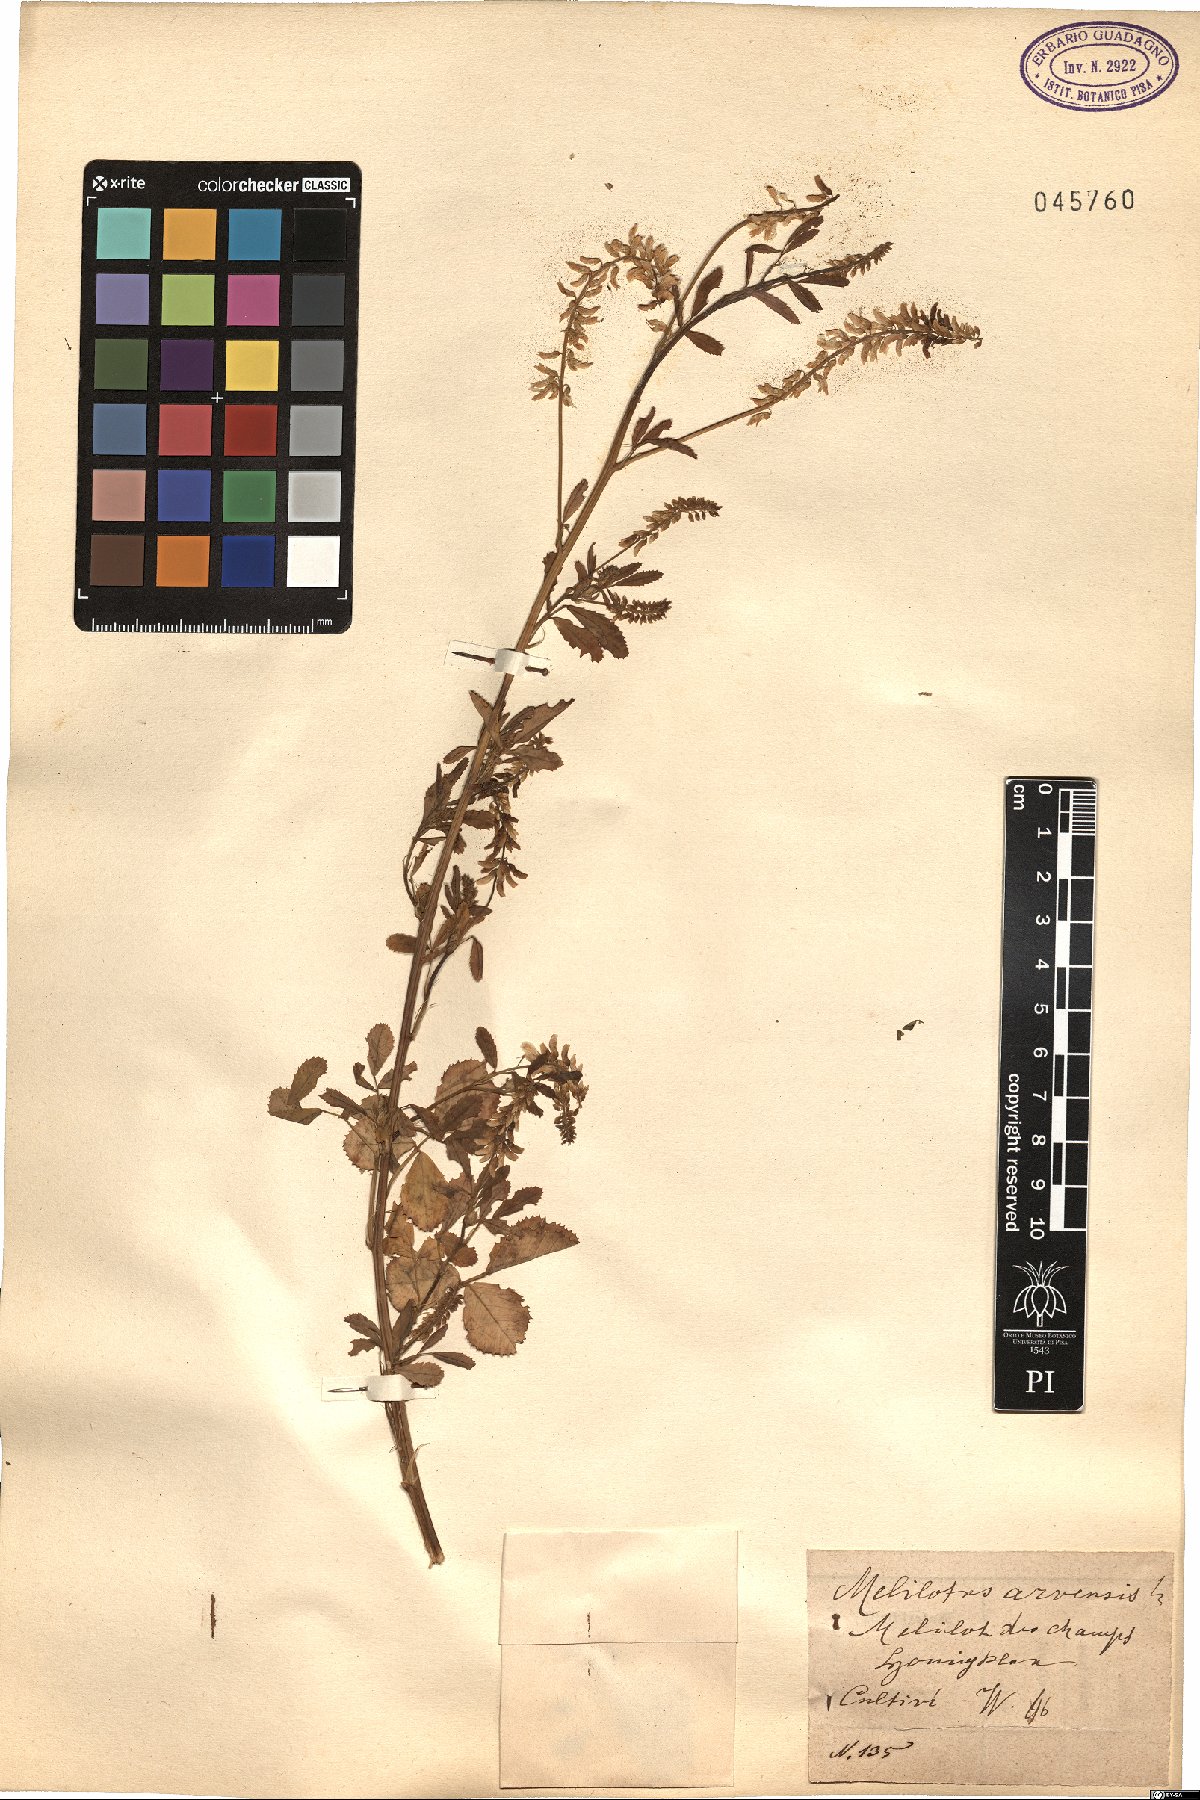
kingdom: Plantae
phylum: Tracheophyta
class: Magnoliopsida
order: Fabales
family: Fabaceae
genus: Melilotus
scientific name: Melilotus officinalis
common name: Sweetclover
